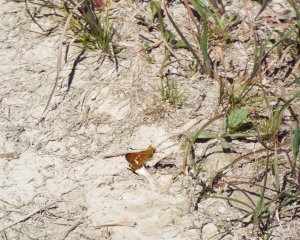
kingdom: Animalia
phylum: Arthropoda
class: Insecta
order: Lepidoptera
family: Hesperiidae
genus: Hesperia
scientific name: Hesperia leonardus
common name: Leonard's Skipper
